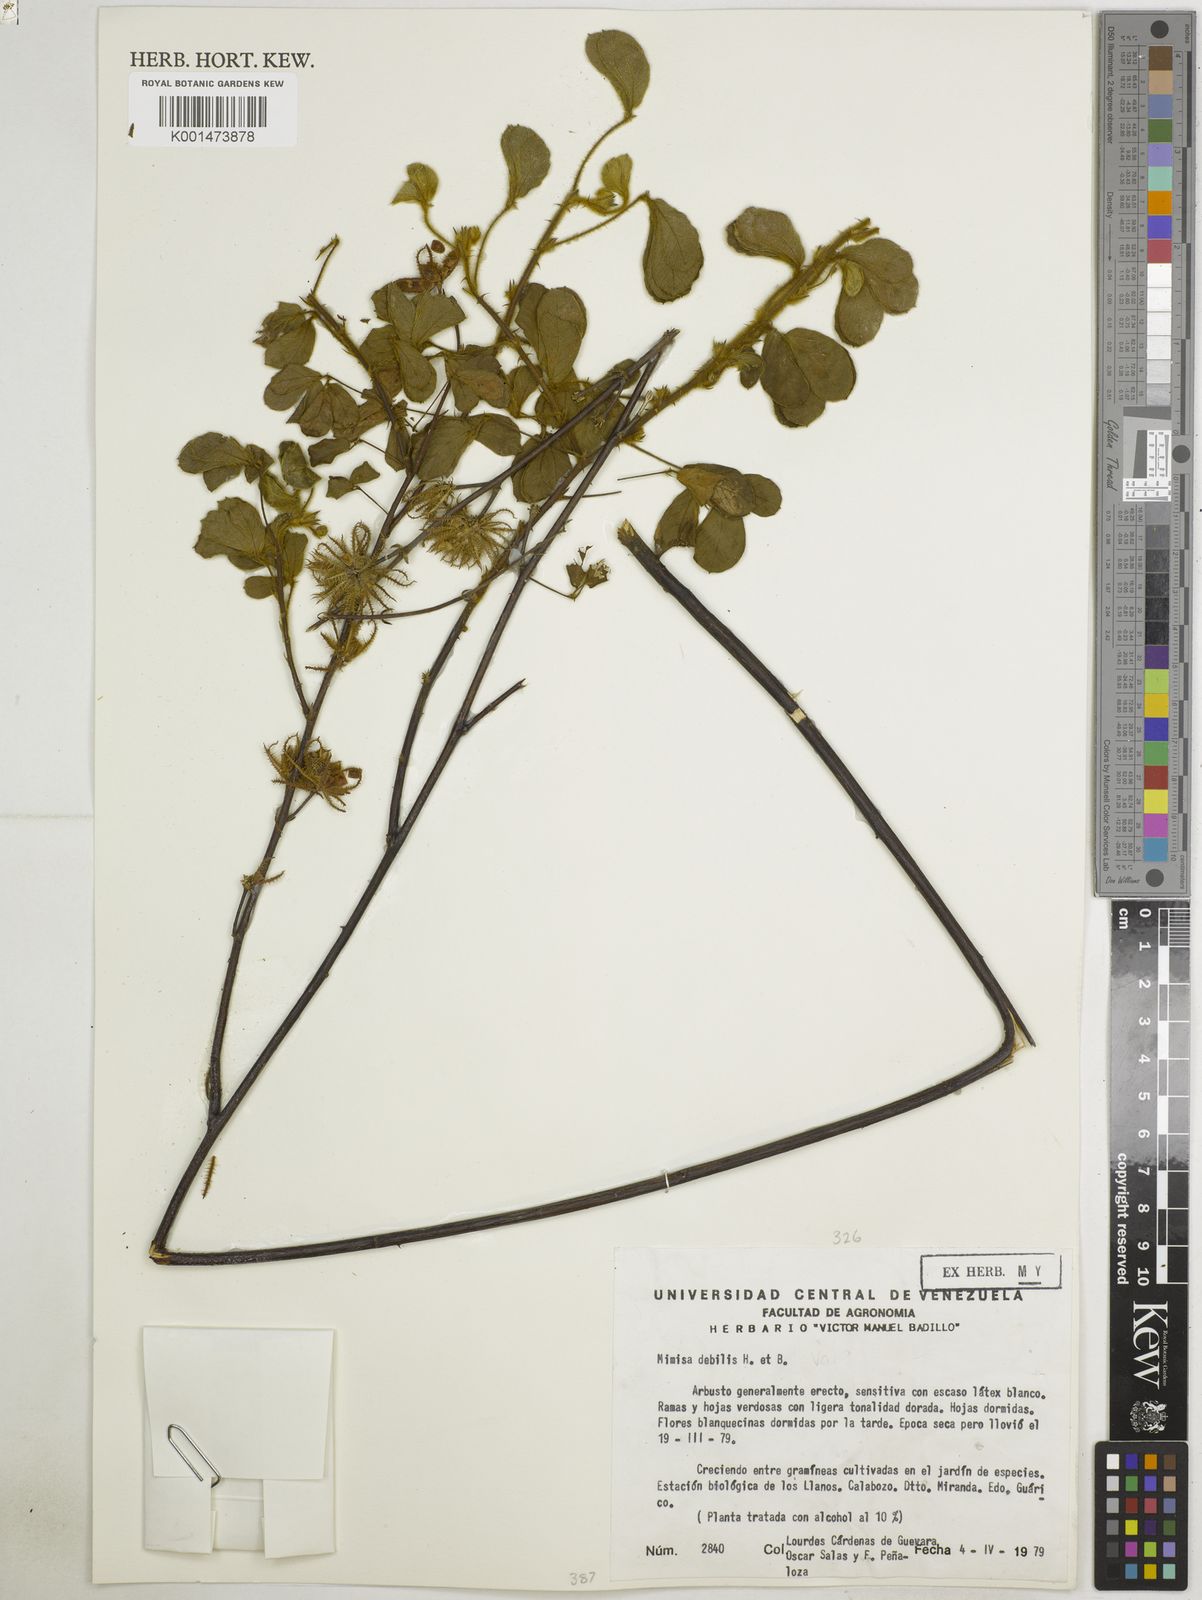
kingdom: Plantae
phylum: Tracheophyta
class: Magnoliopsida
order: Fabales
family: Fabaceae
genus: Mimosa
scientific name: Mimosa debilis
